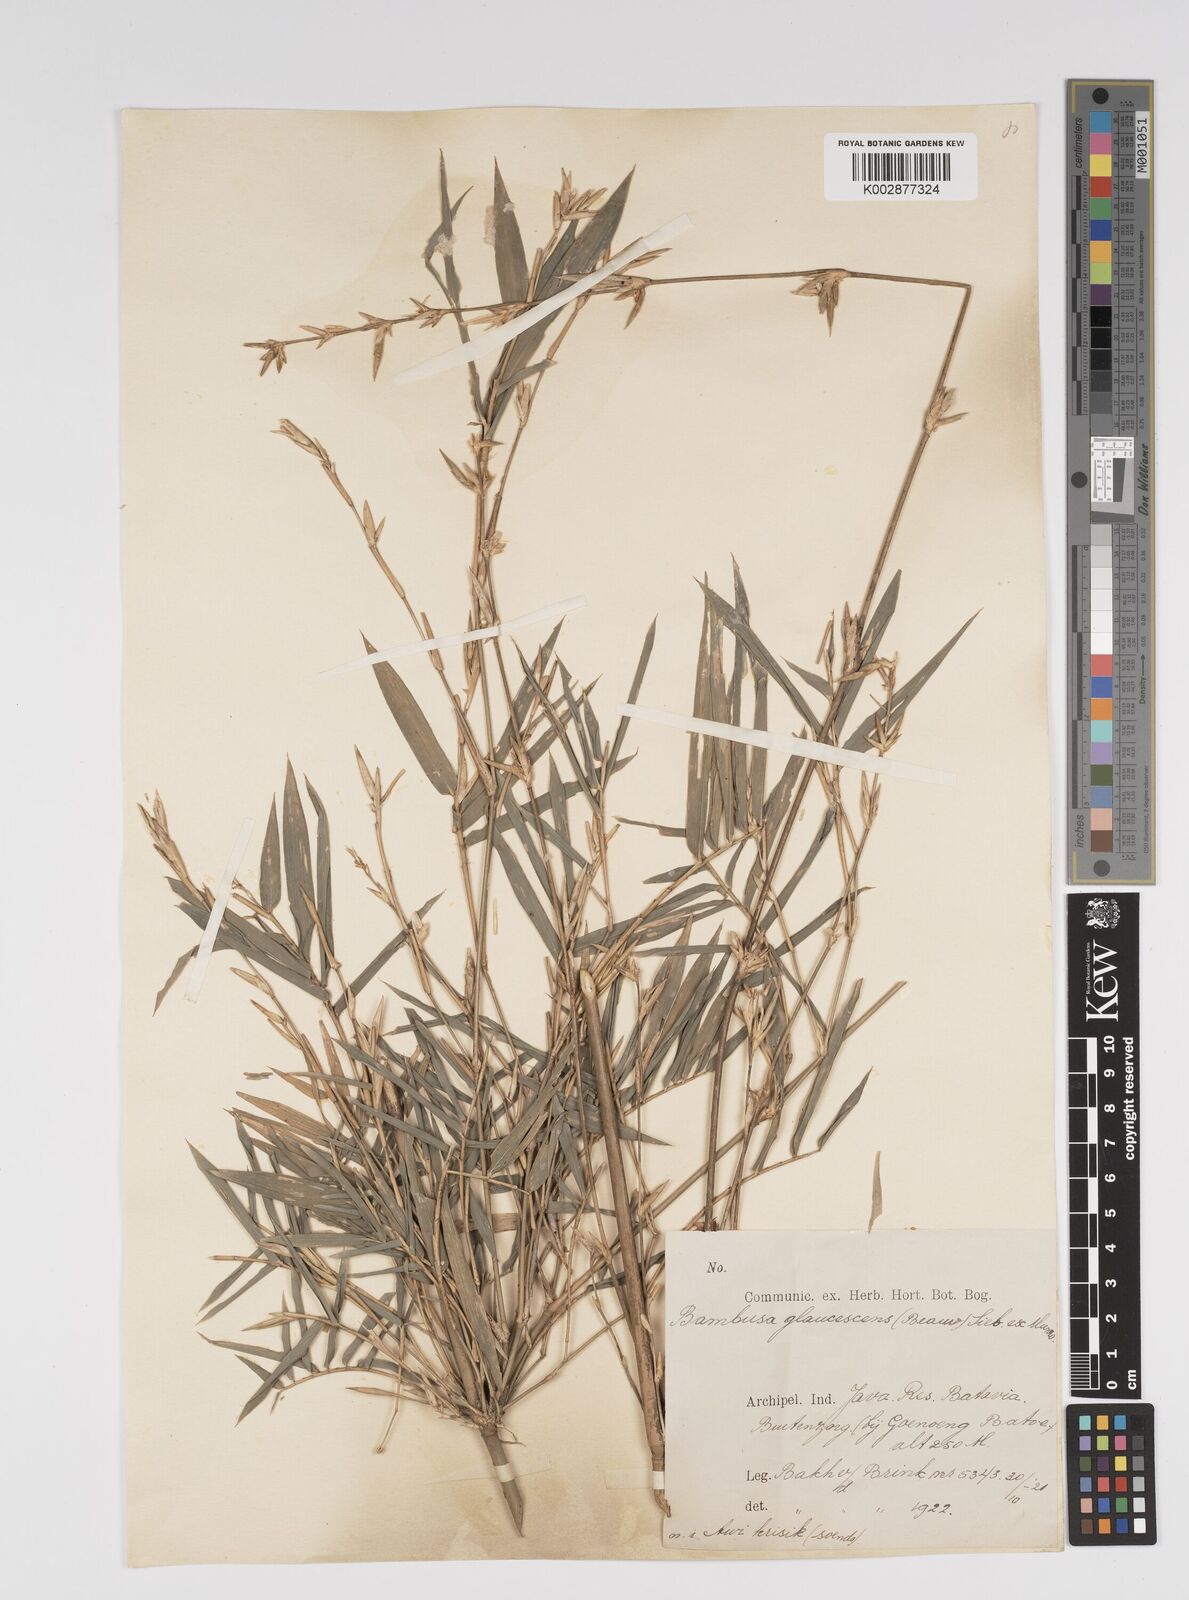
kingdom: Plantae
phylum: Tracheophyta
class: Liliopsida
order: Poales
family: Poaceae
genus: Bambusa
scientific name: Bambusa multiplex
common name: Hedge bamboo
